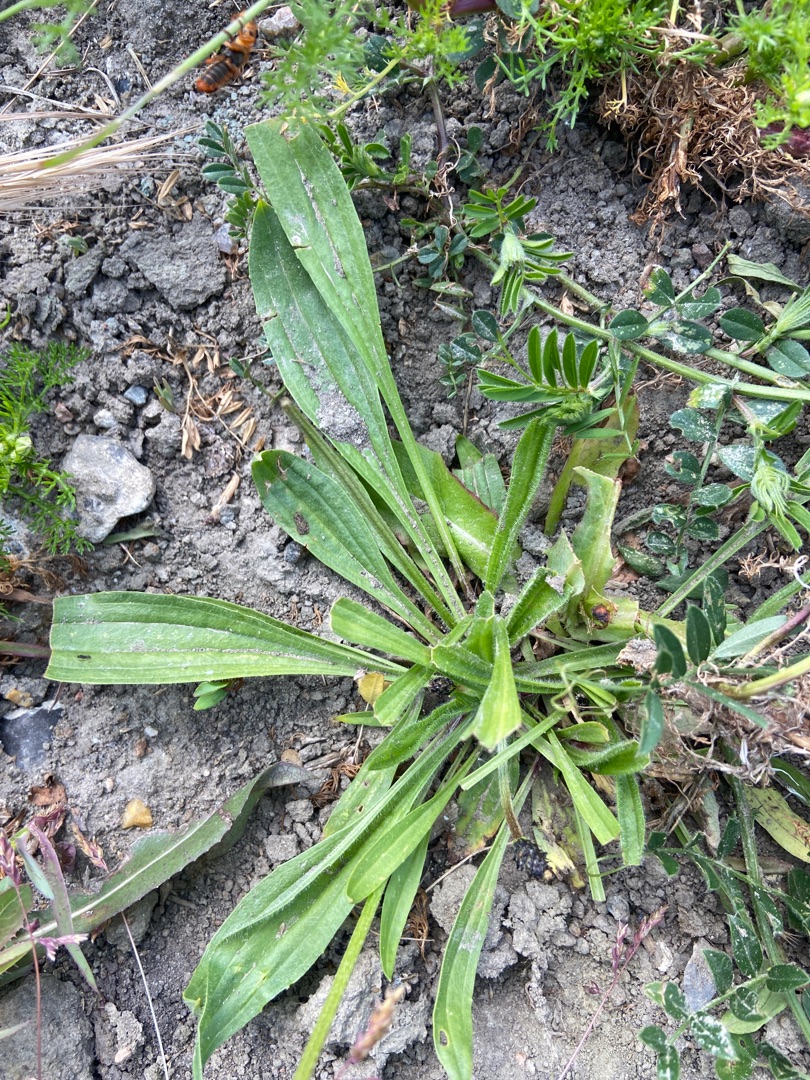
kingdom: Plantae
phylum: Tracheophyta
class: Magnoliopsida
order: Lamiales
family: Plantaginaceae
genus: Plantago
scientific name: Plantago lanceolata
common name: Lancet-vejbred
